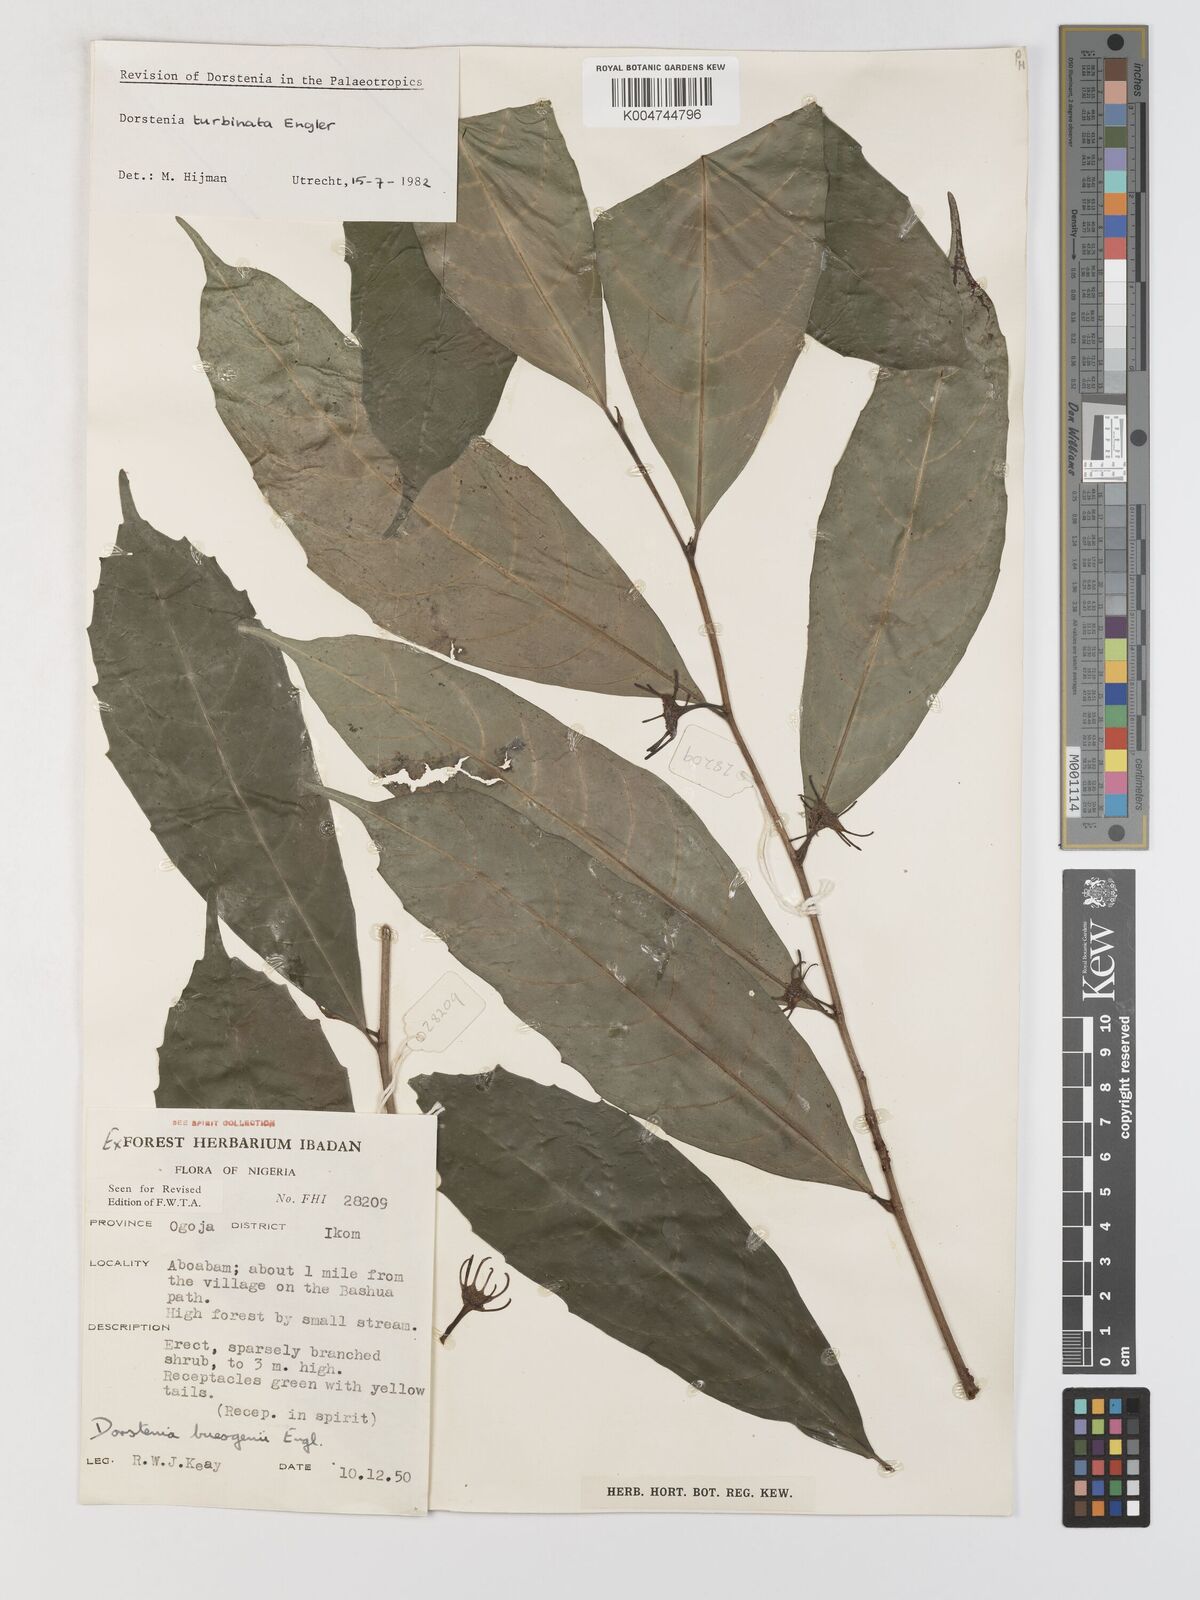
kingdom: Plantae
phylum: Tracheophyta
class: Magnoliopsida
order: Rosales
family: Moraceae
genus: Hijmania
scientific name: Hijmania turbinata
